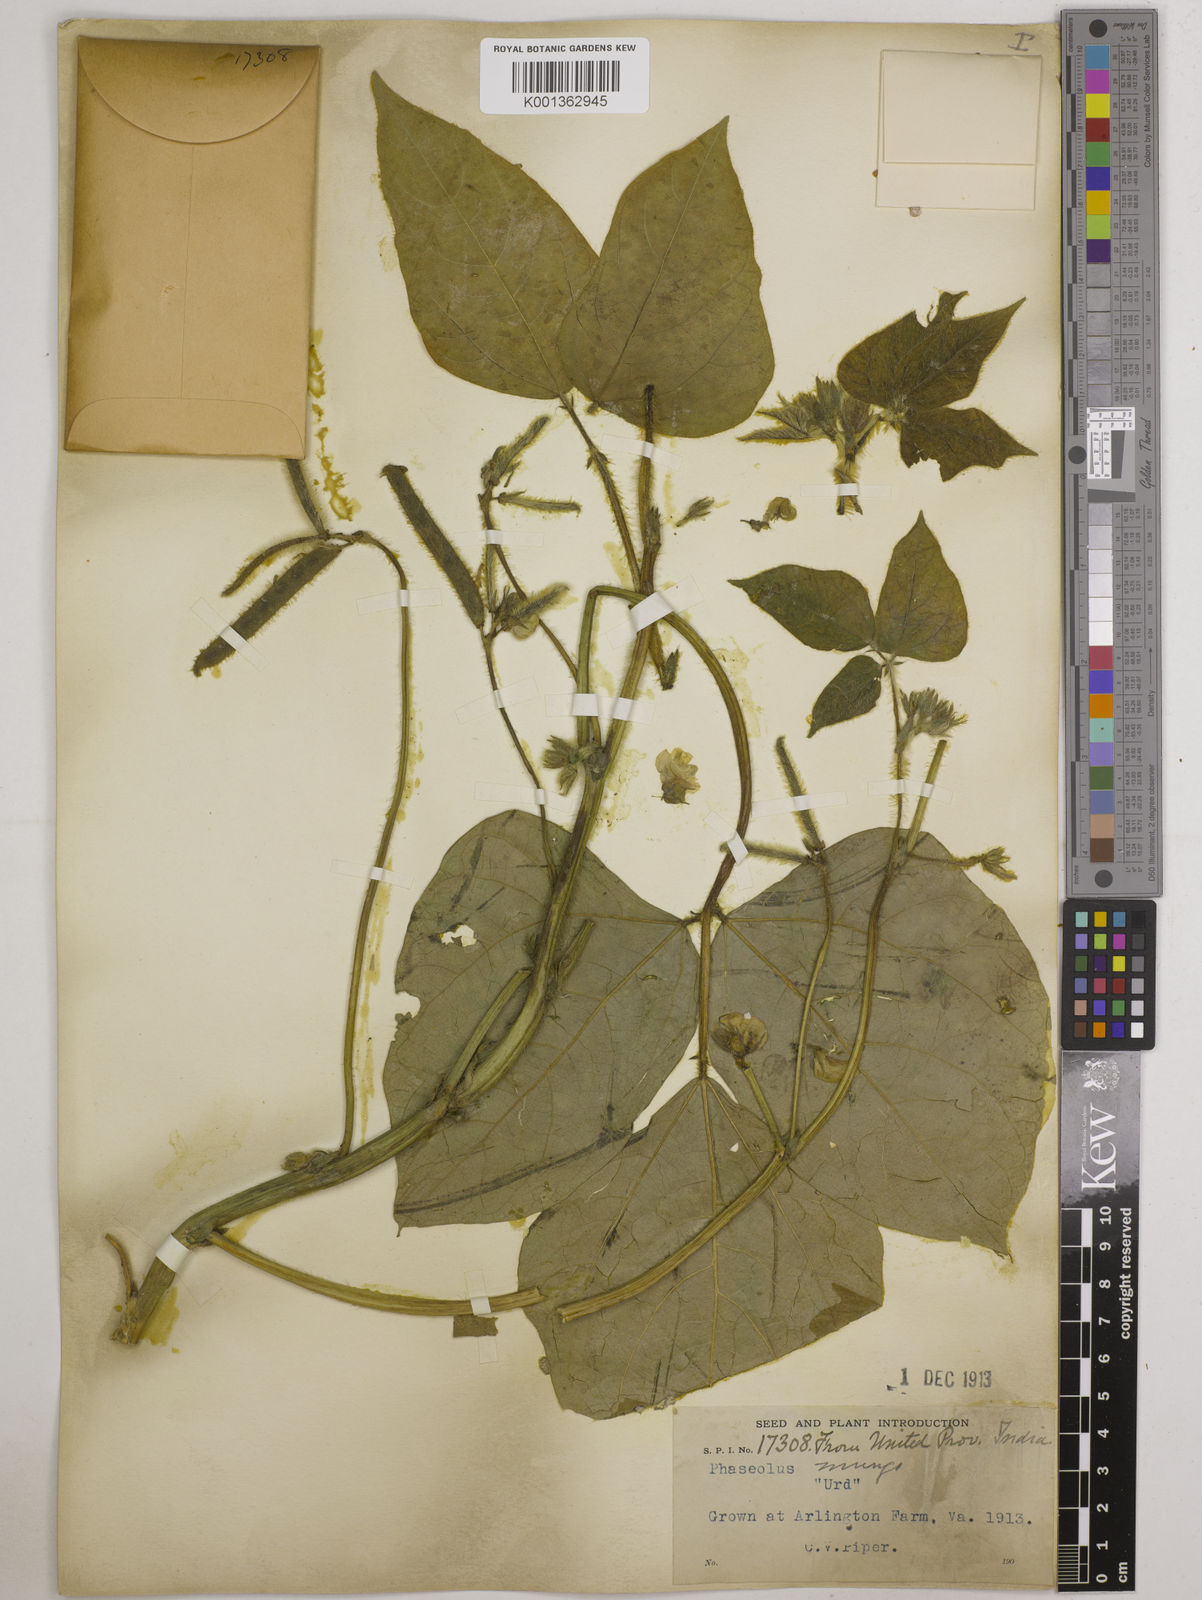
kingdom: Plantae
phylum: Tracheophyta
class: Magnoliopsida
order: Fabales
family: Fabaceae
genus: Vigna
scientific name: Vigna mungo
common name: Black gram
